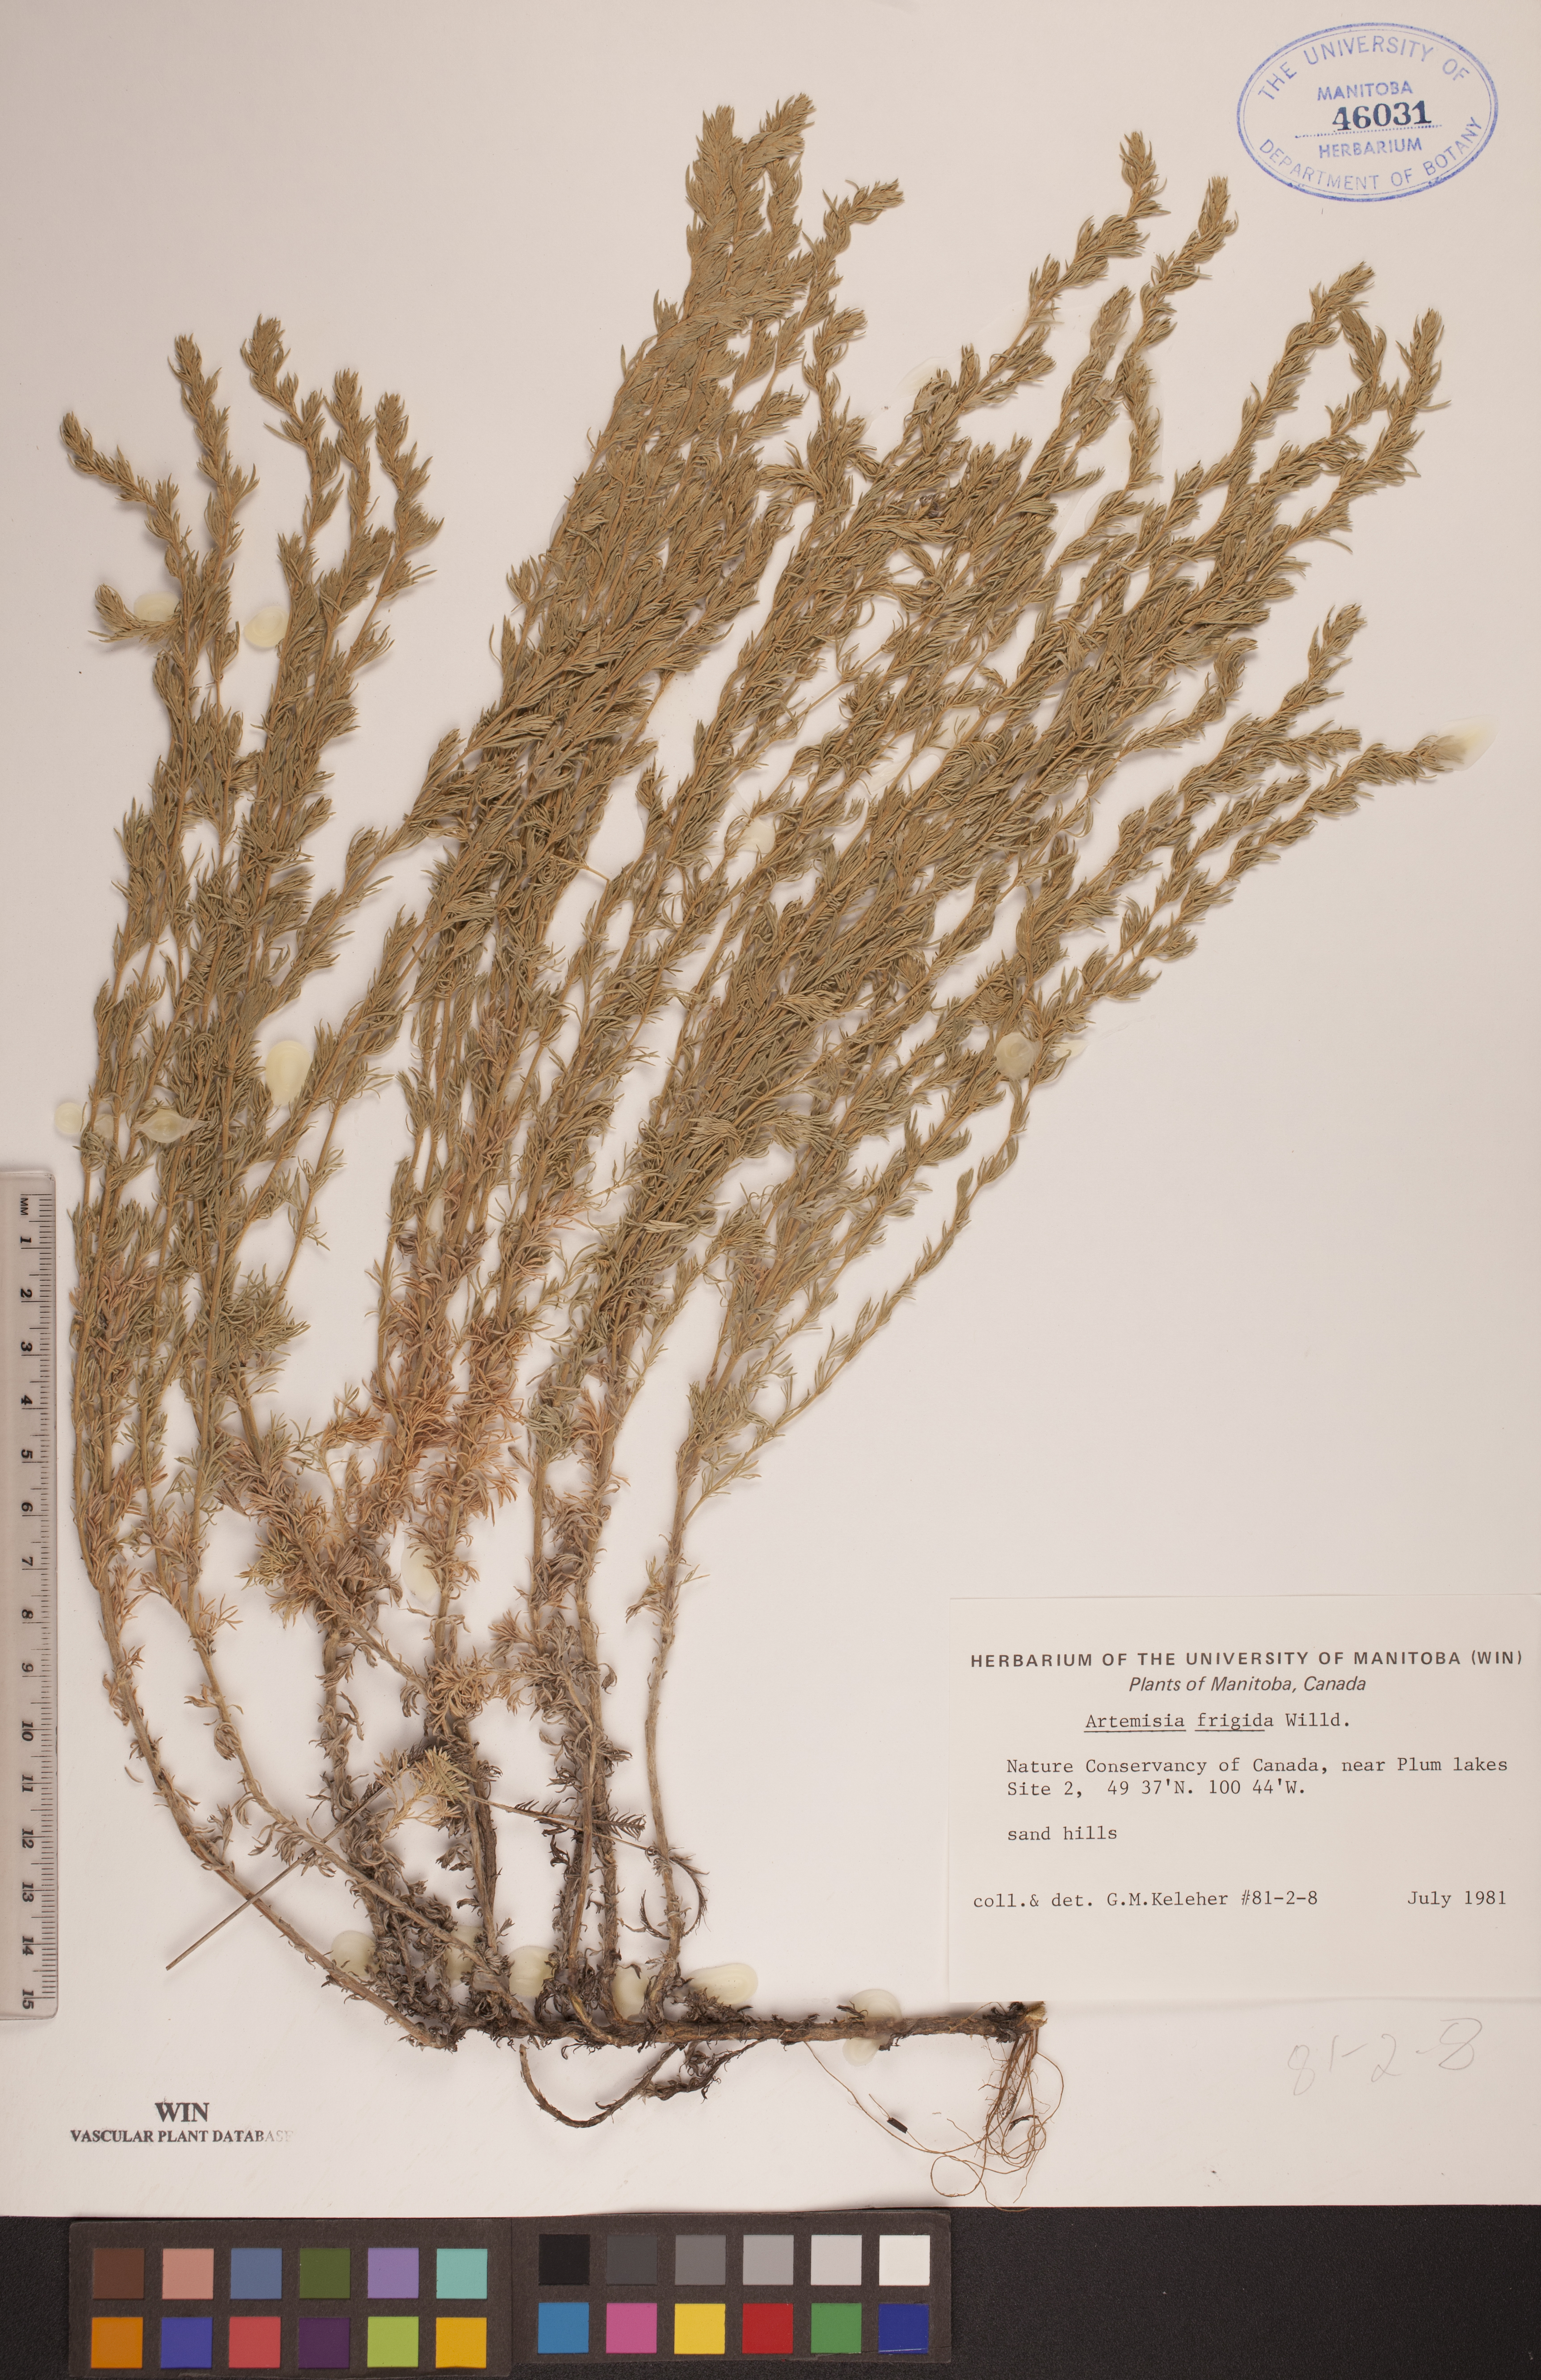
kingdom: Plantae
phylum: Tracheophyta
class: Magnoliopsida
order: Asterales
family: Asteraceae
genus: Artemisia
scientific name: Artemisia frigida
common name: Prairie sagewort
